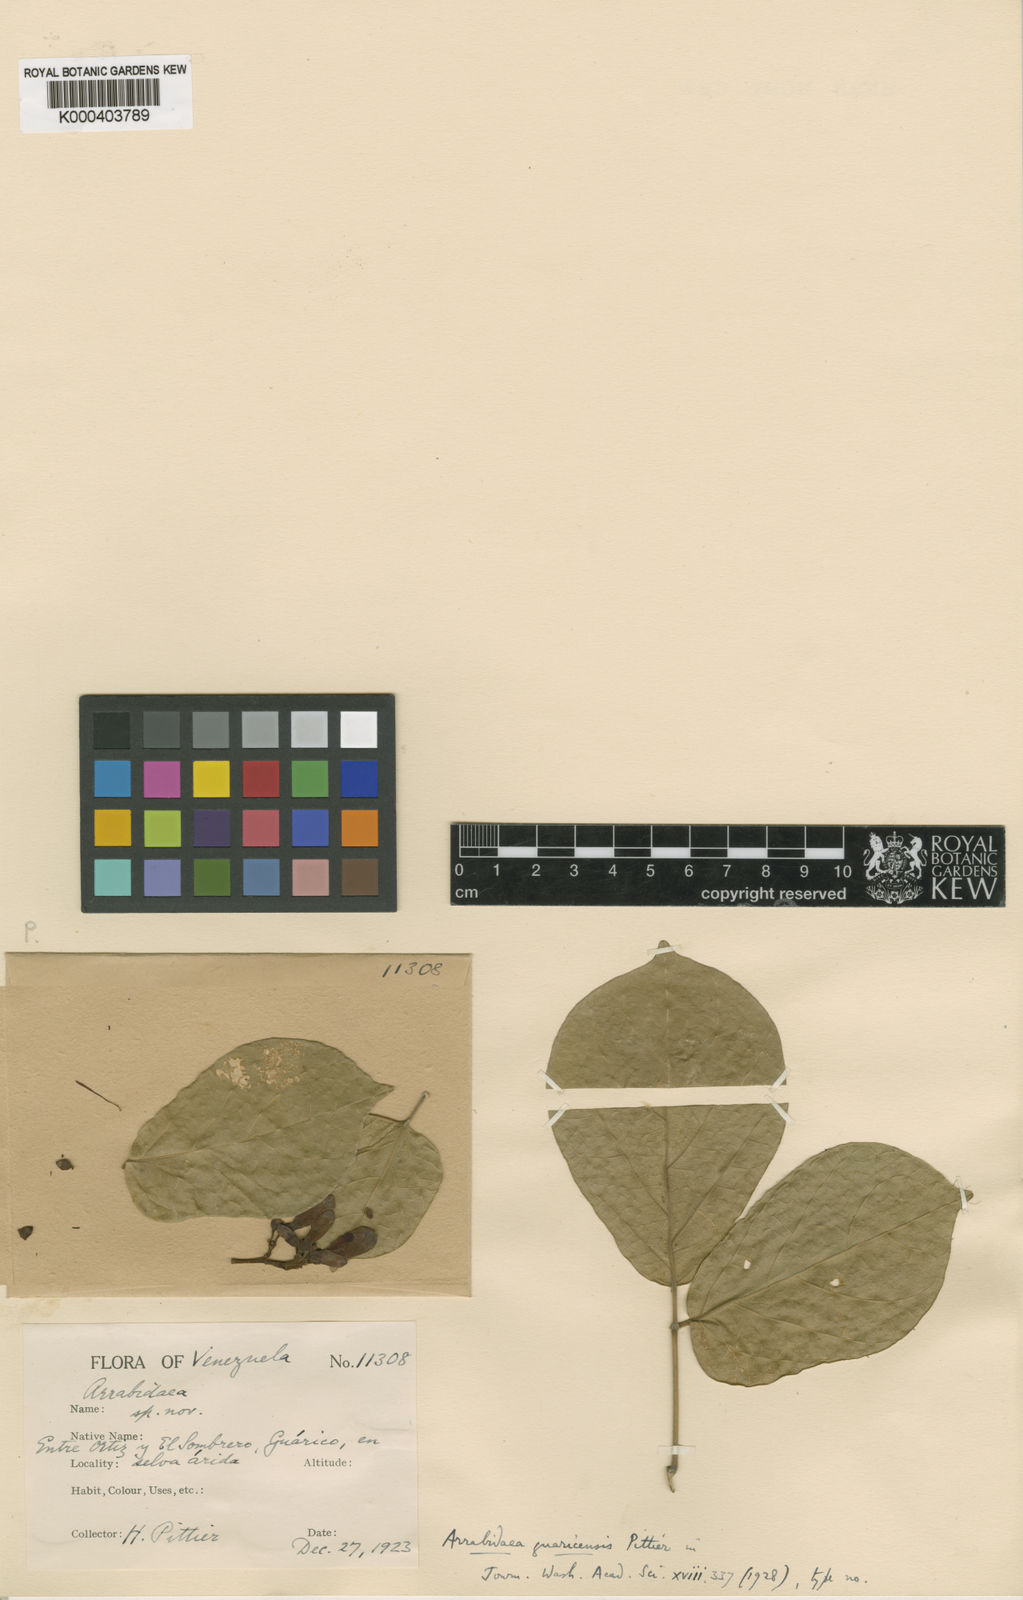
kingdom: Plantae
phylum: Tracheophyta
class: Magnoliopsida
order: Lamiales
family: Bignoniaceae
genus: Tanaecium
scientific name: Tanaecium
